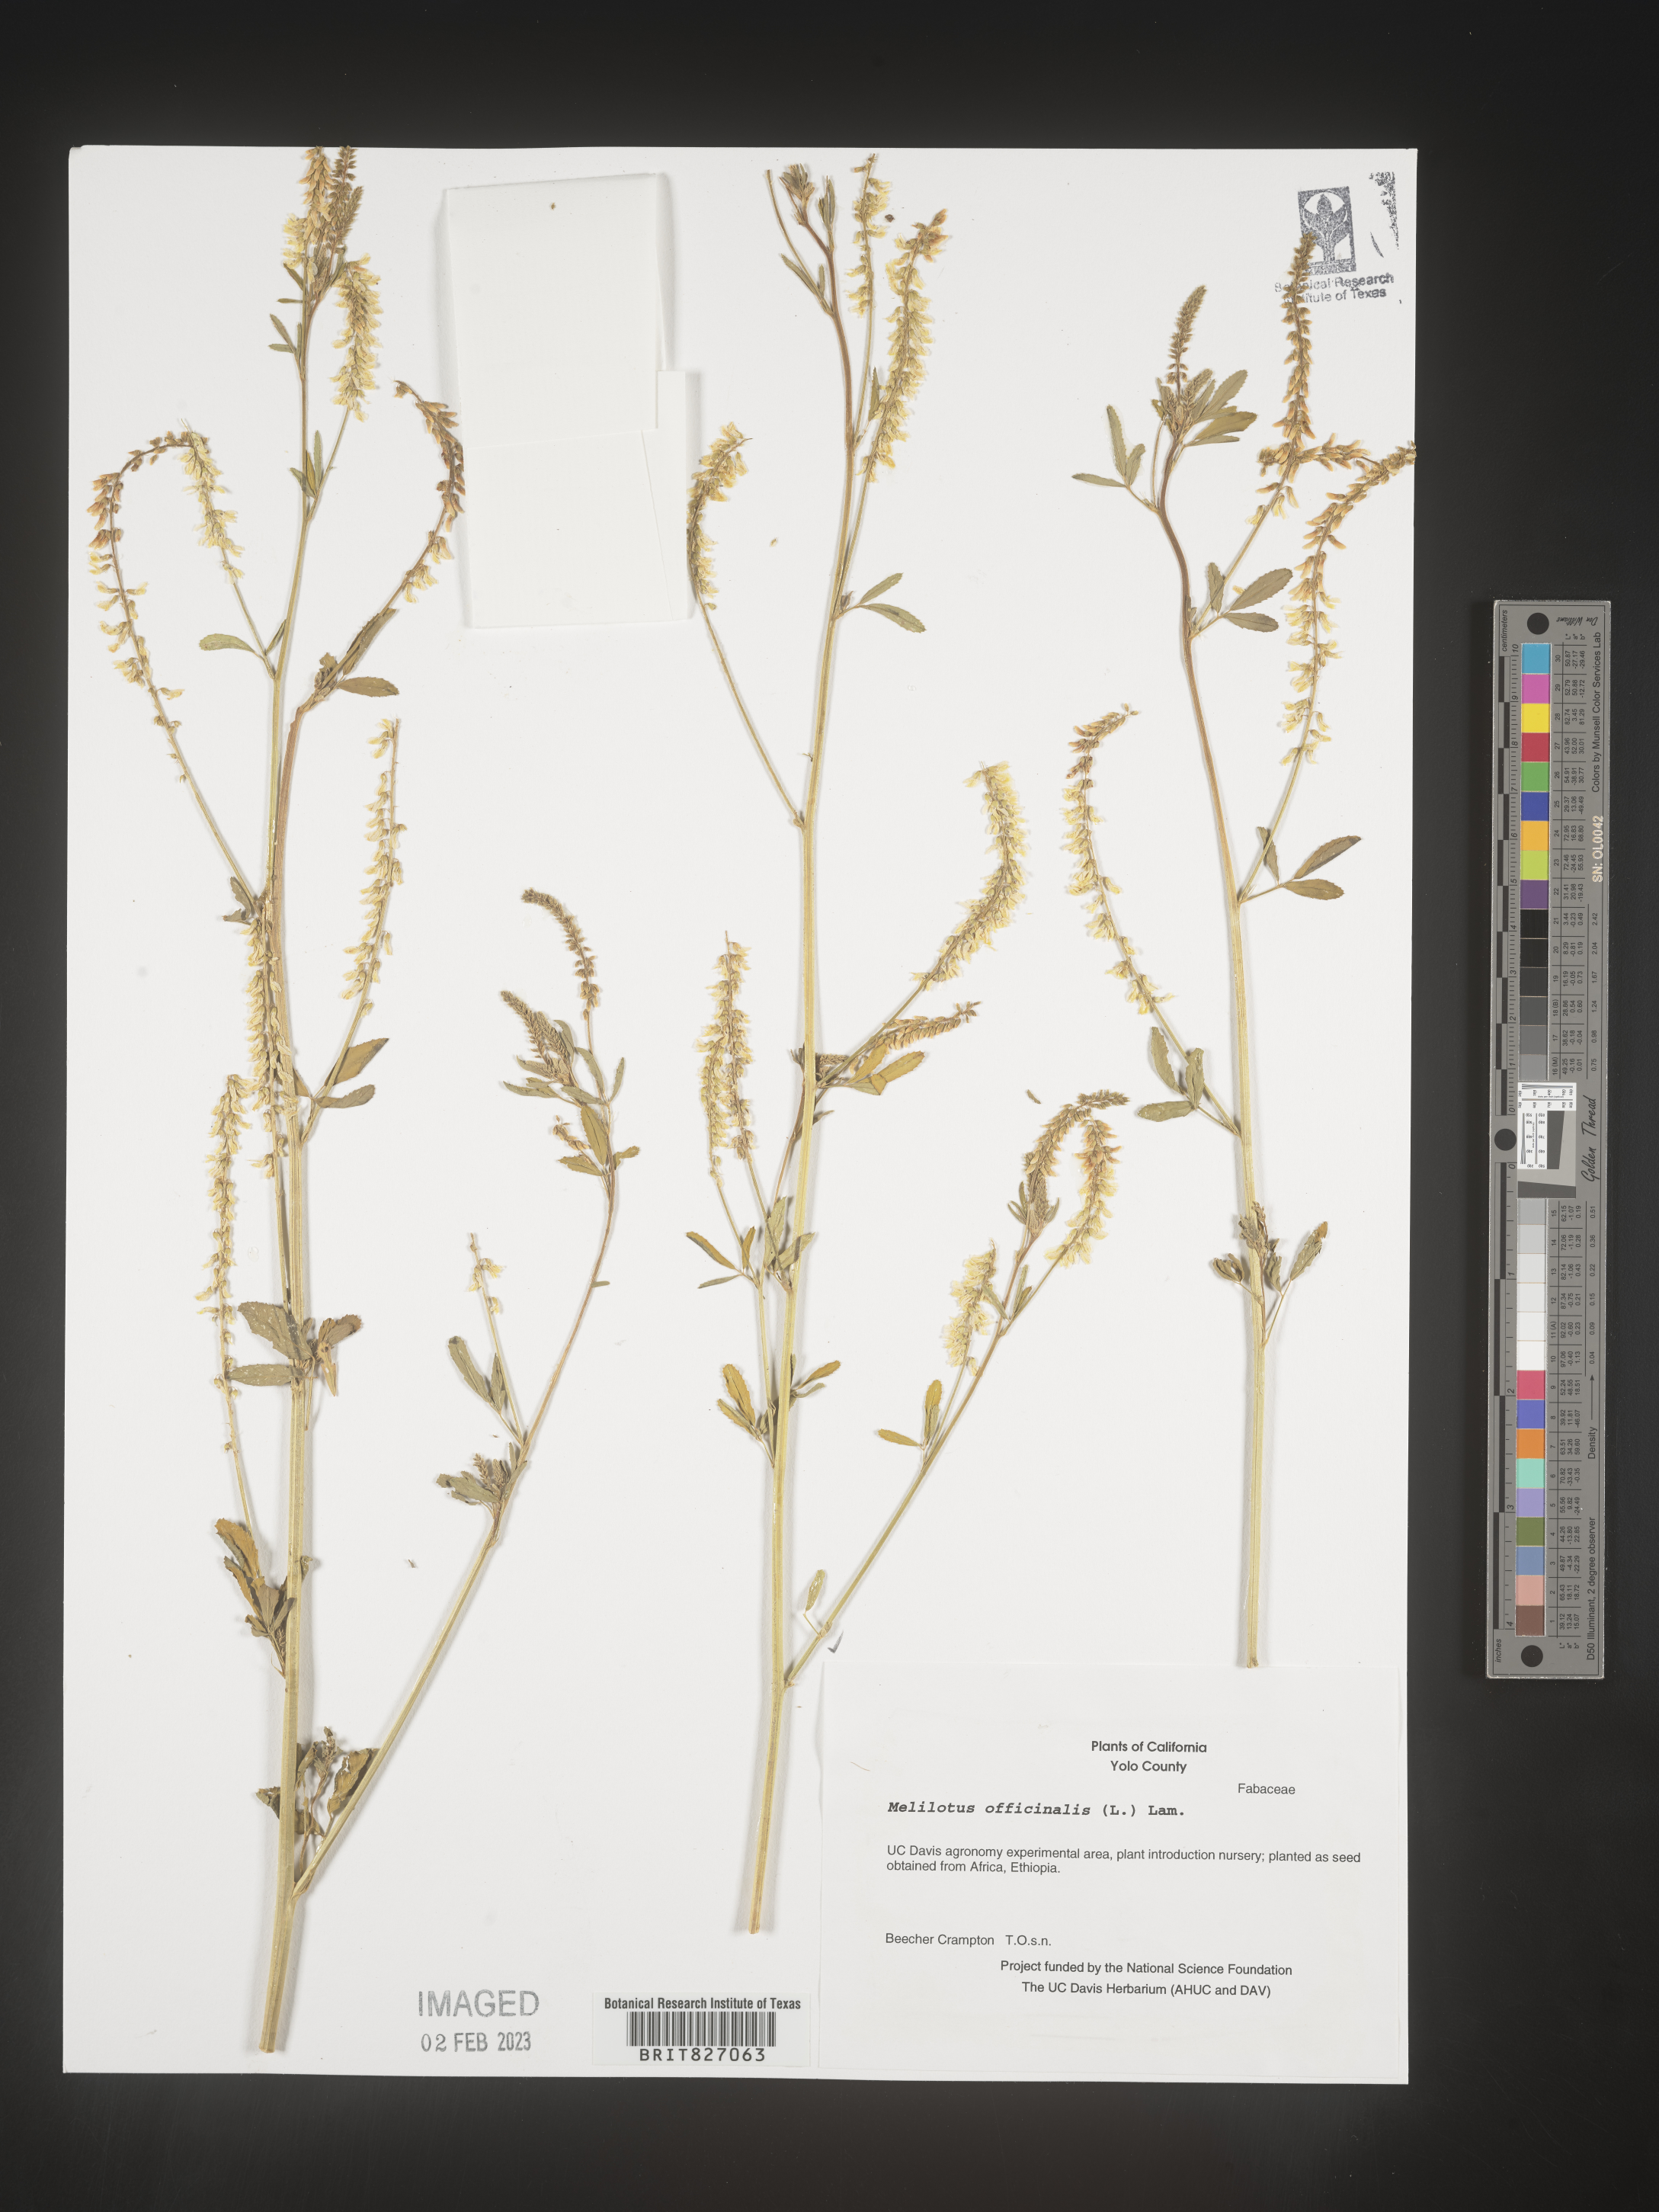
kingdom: Plantae
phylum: Tracheophyta
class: Magnoliopsida
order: Fabales
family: Fabaceae
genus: Melilotus
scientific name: Melilotus officinalis
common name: Sweetclover
